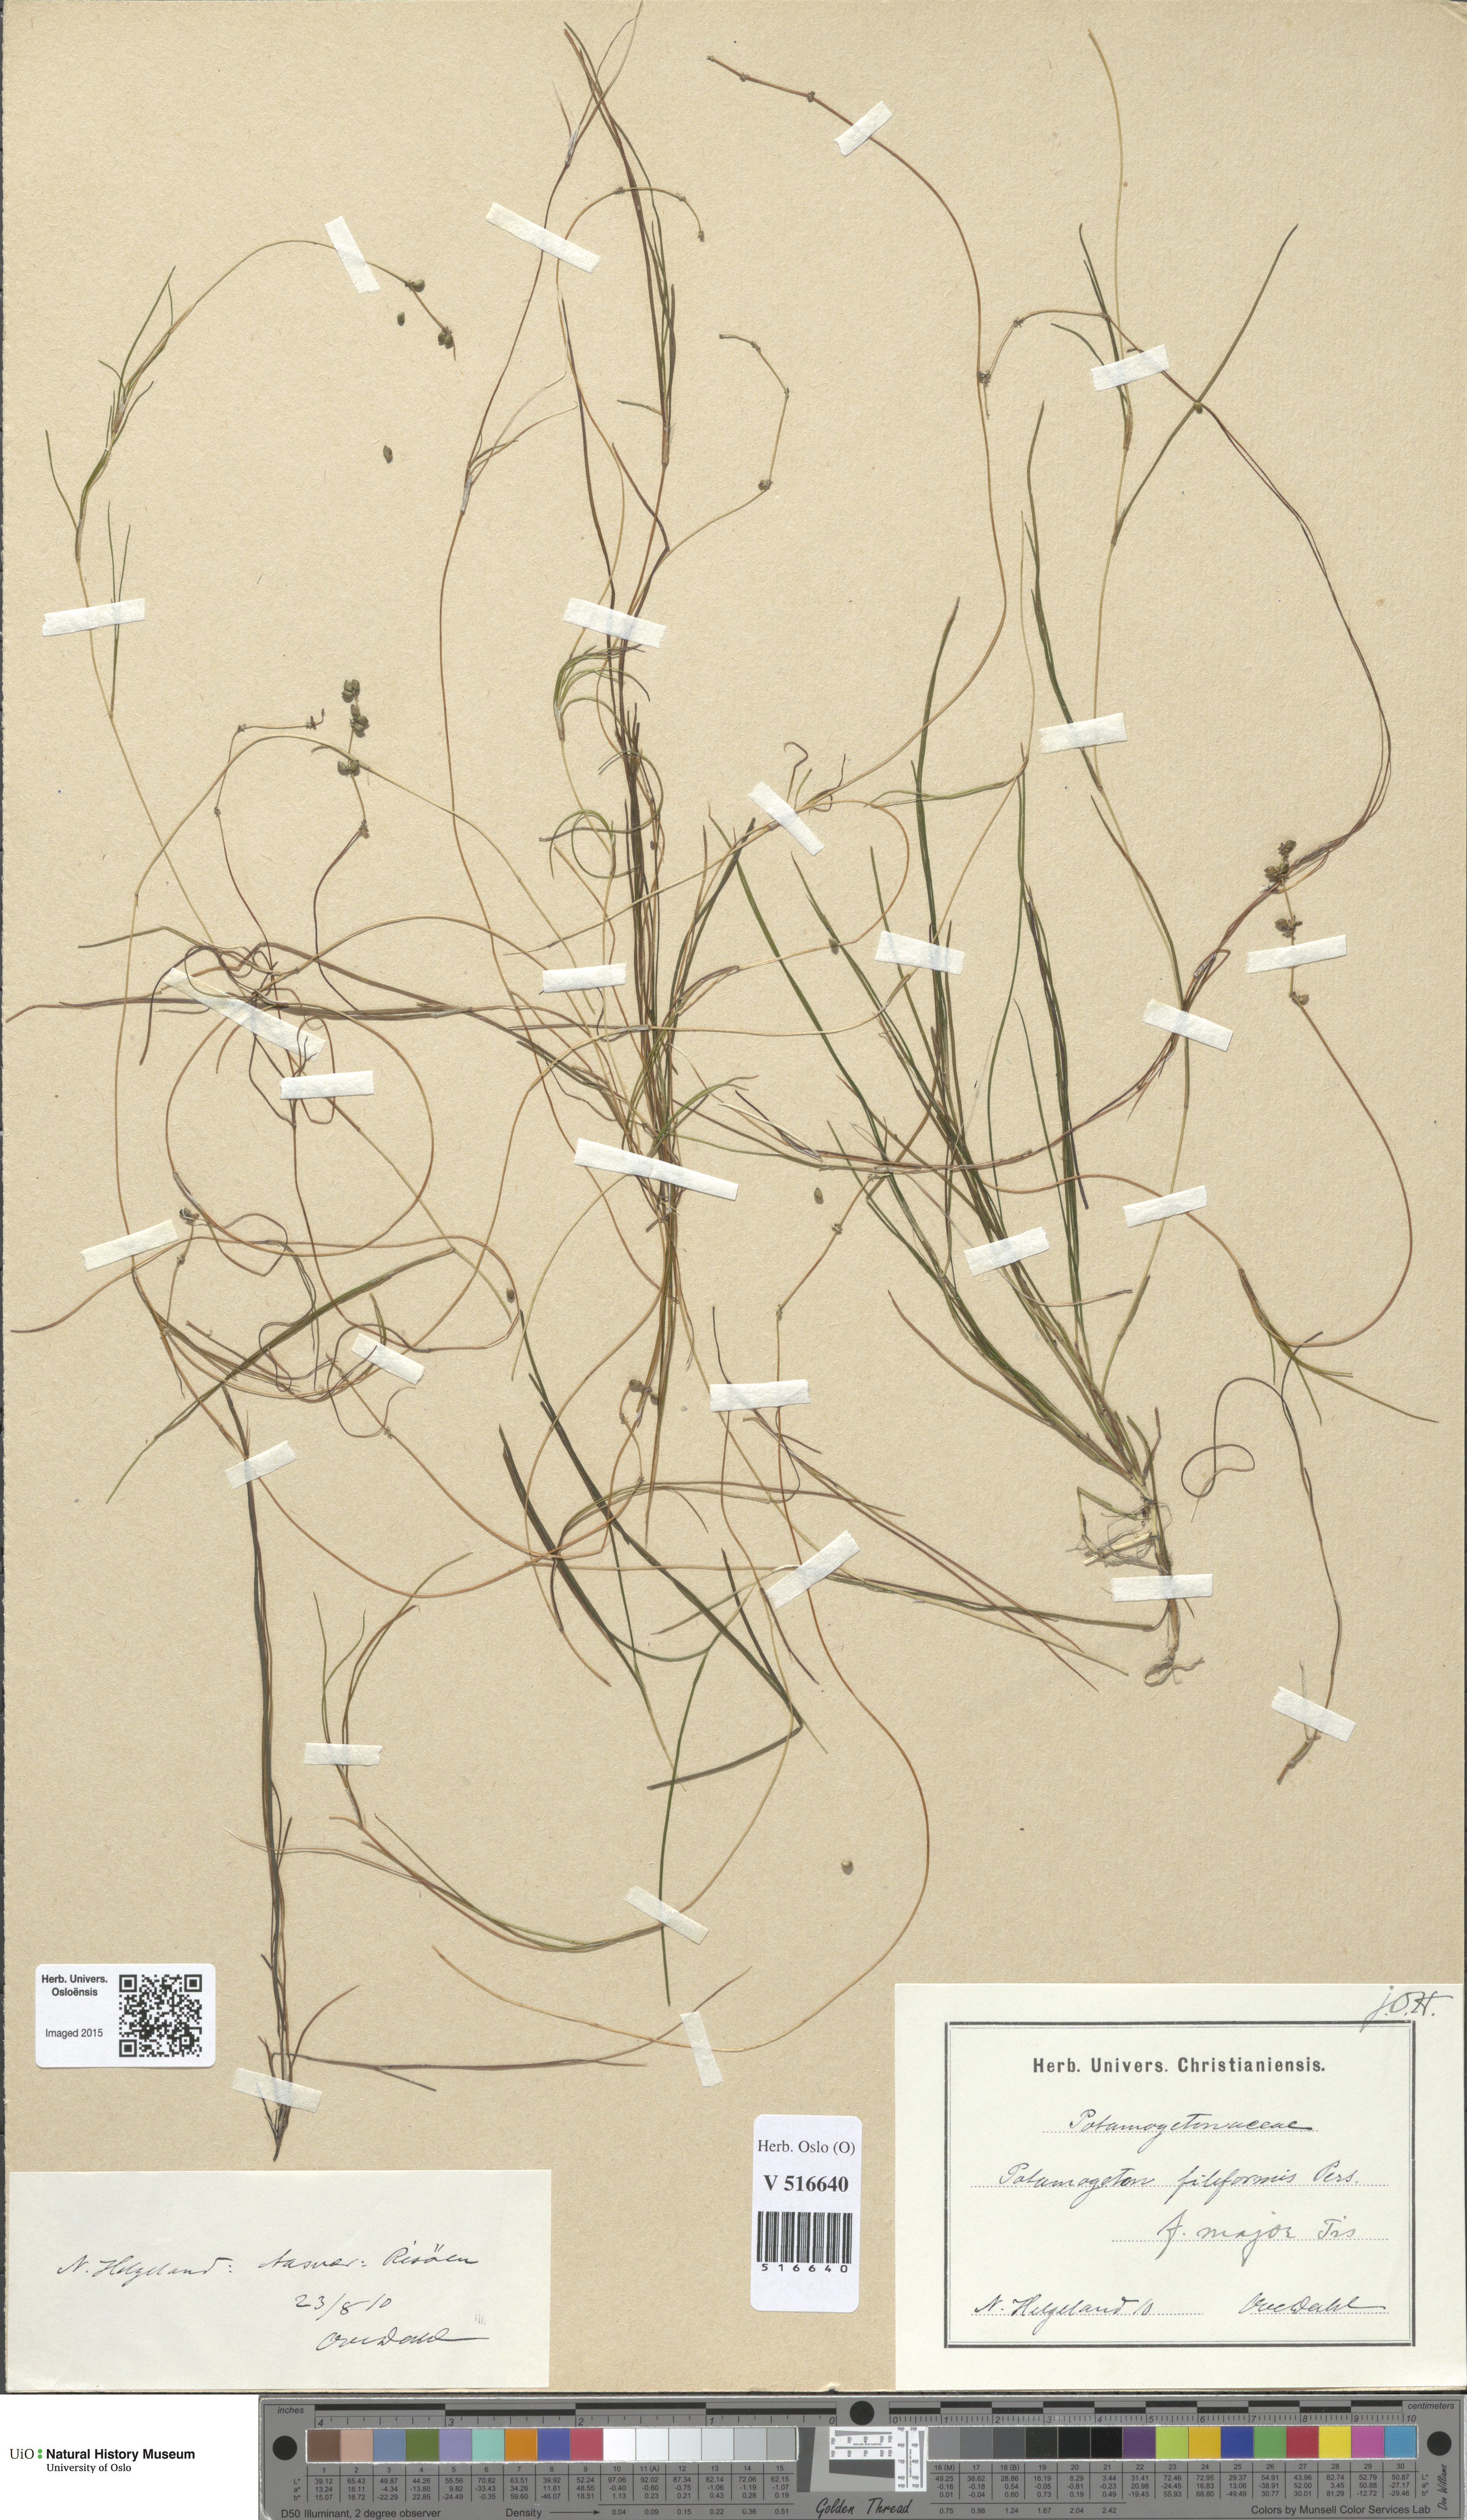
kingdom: Plantae
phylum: Tracheophyta
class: Liliopsida
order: Alismatales
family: Potamogetonaceae
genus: Stuckenia
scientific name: Stuckenia filiformis
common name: Alpine thread-leaved pondweed
